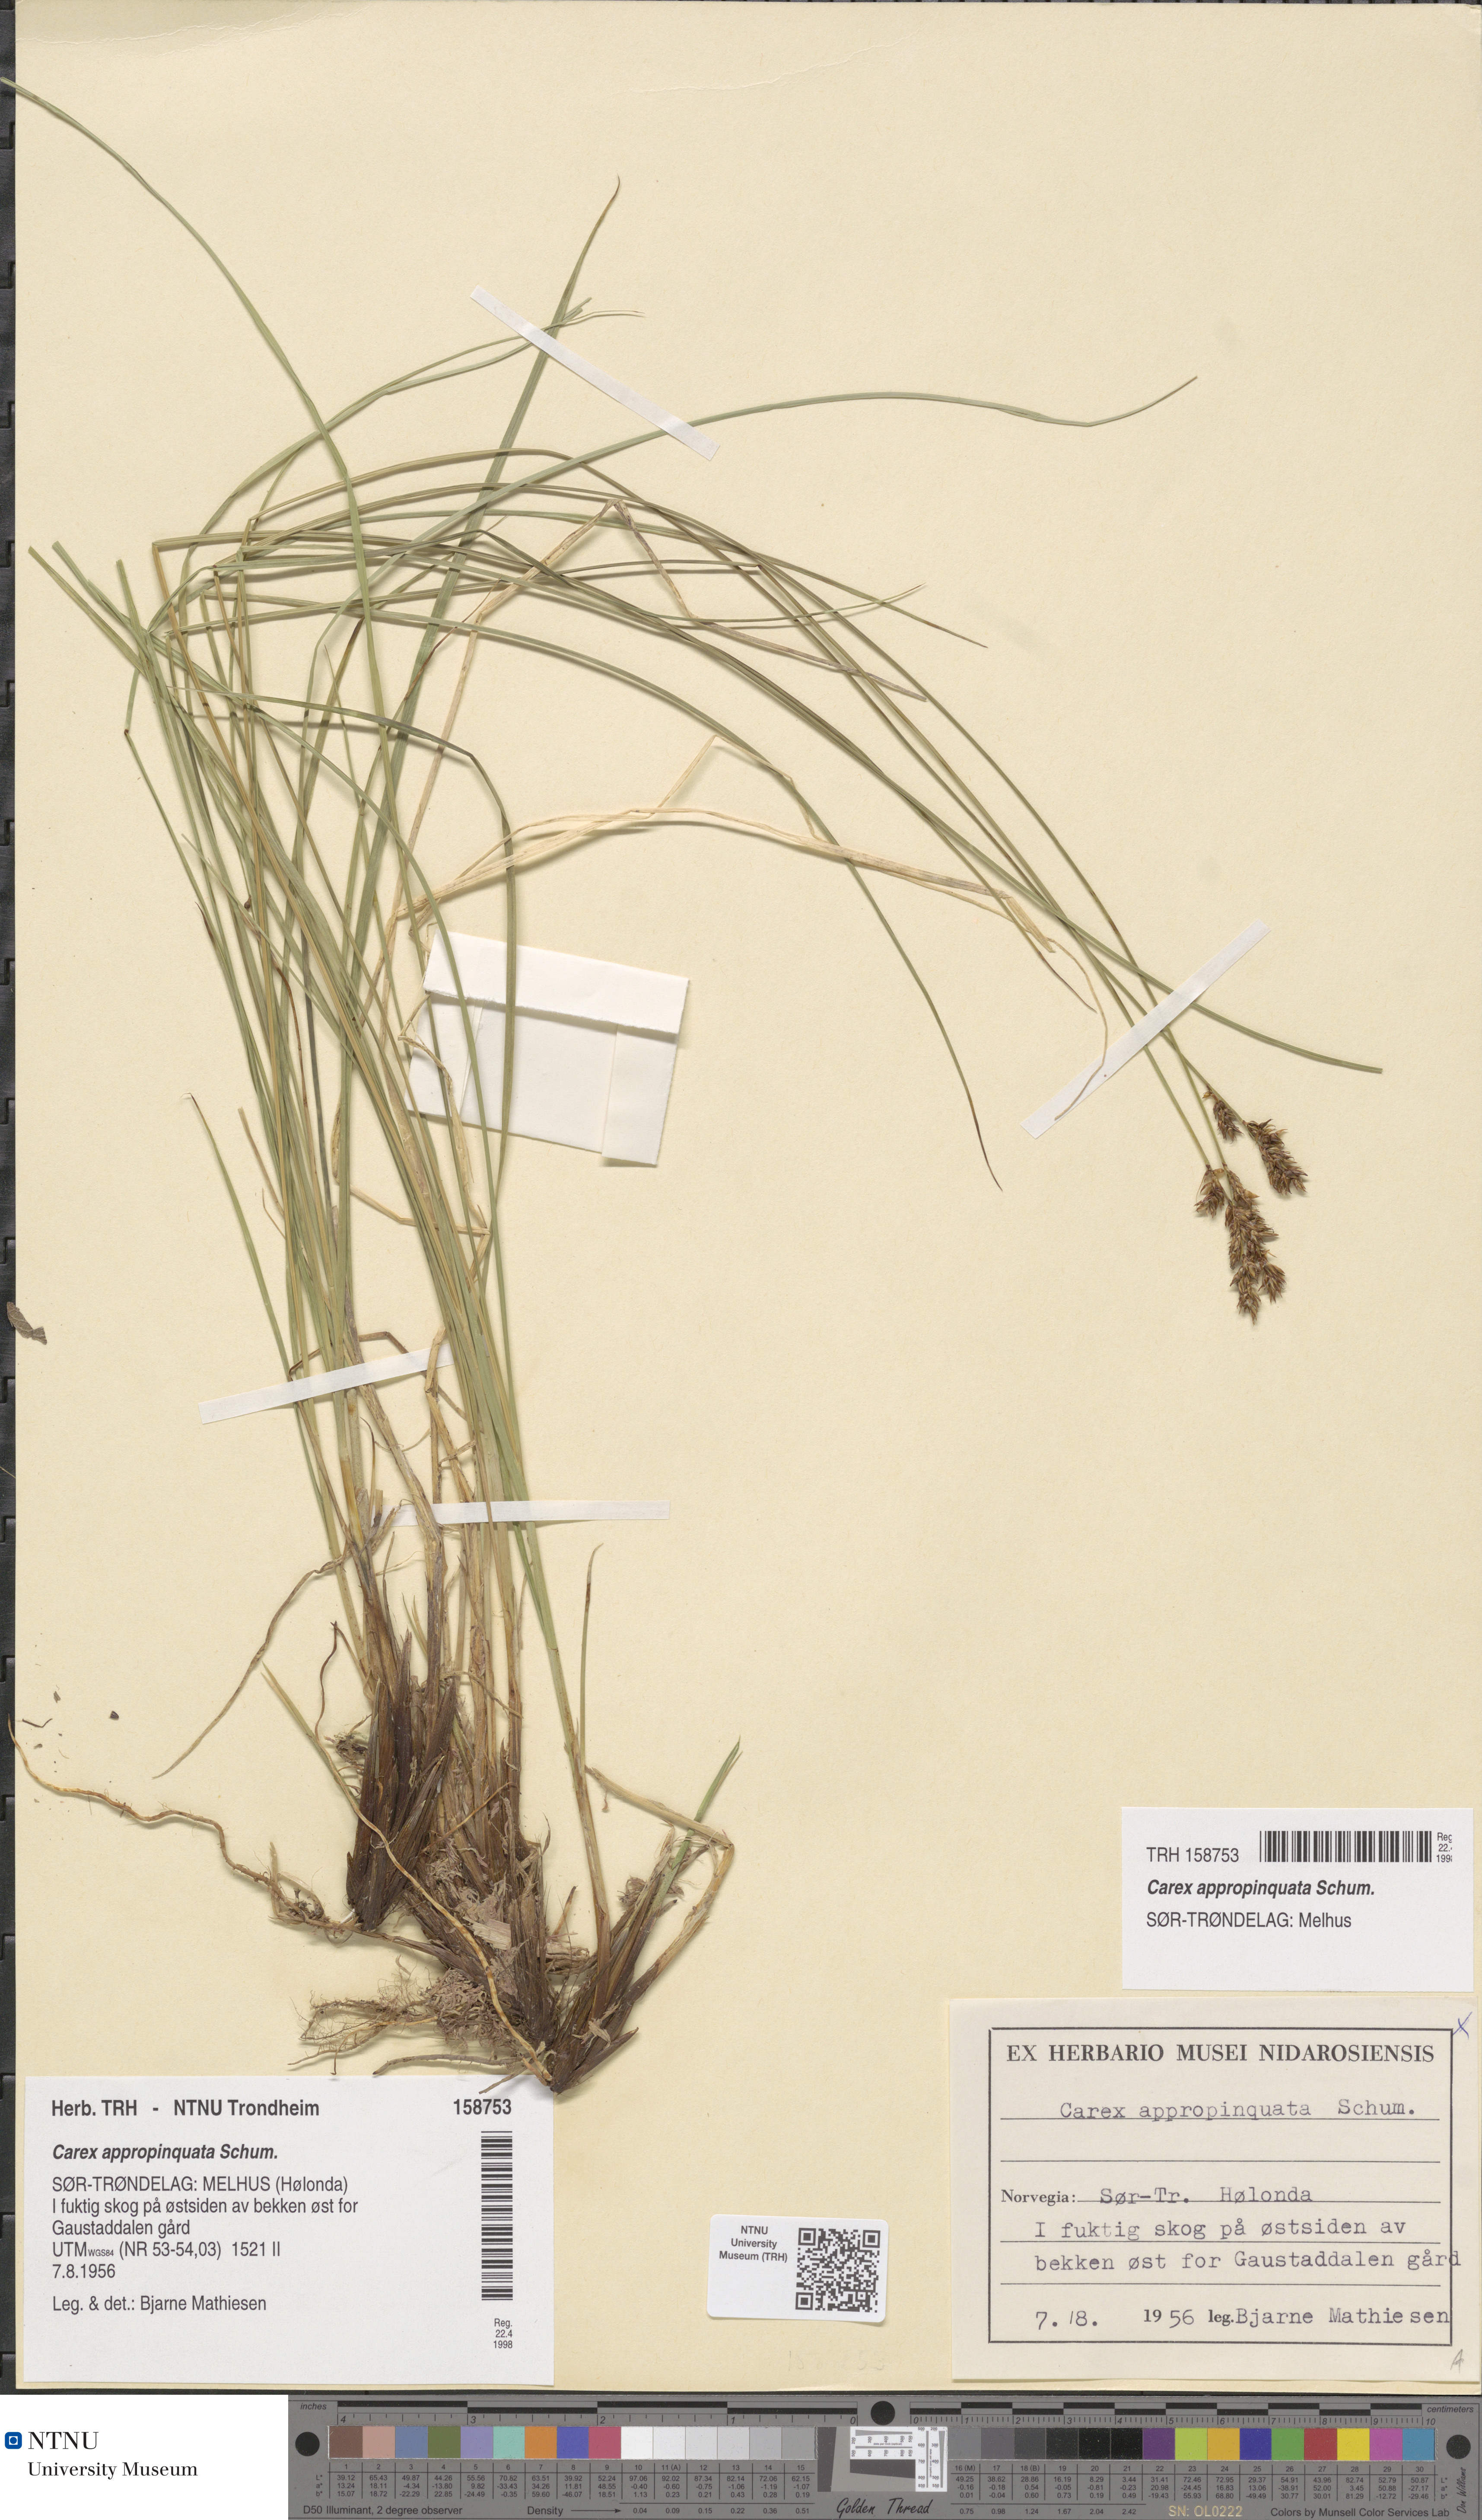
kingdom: Plantae
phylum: Tracheophyta
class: Liliopsida
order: Poales
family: Cyperaceae
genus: Carex
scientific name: Carex appropinquata
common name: Fibrous tussock-sedge
